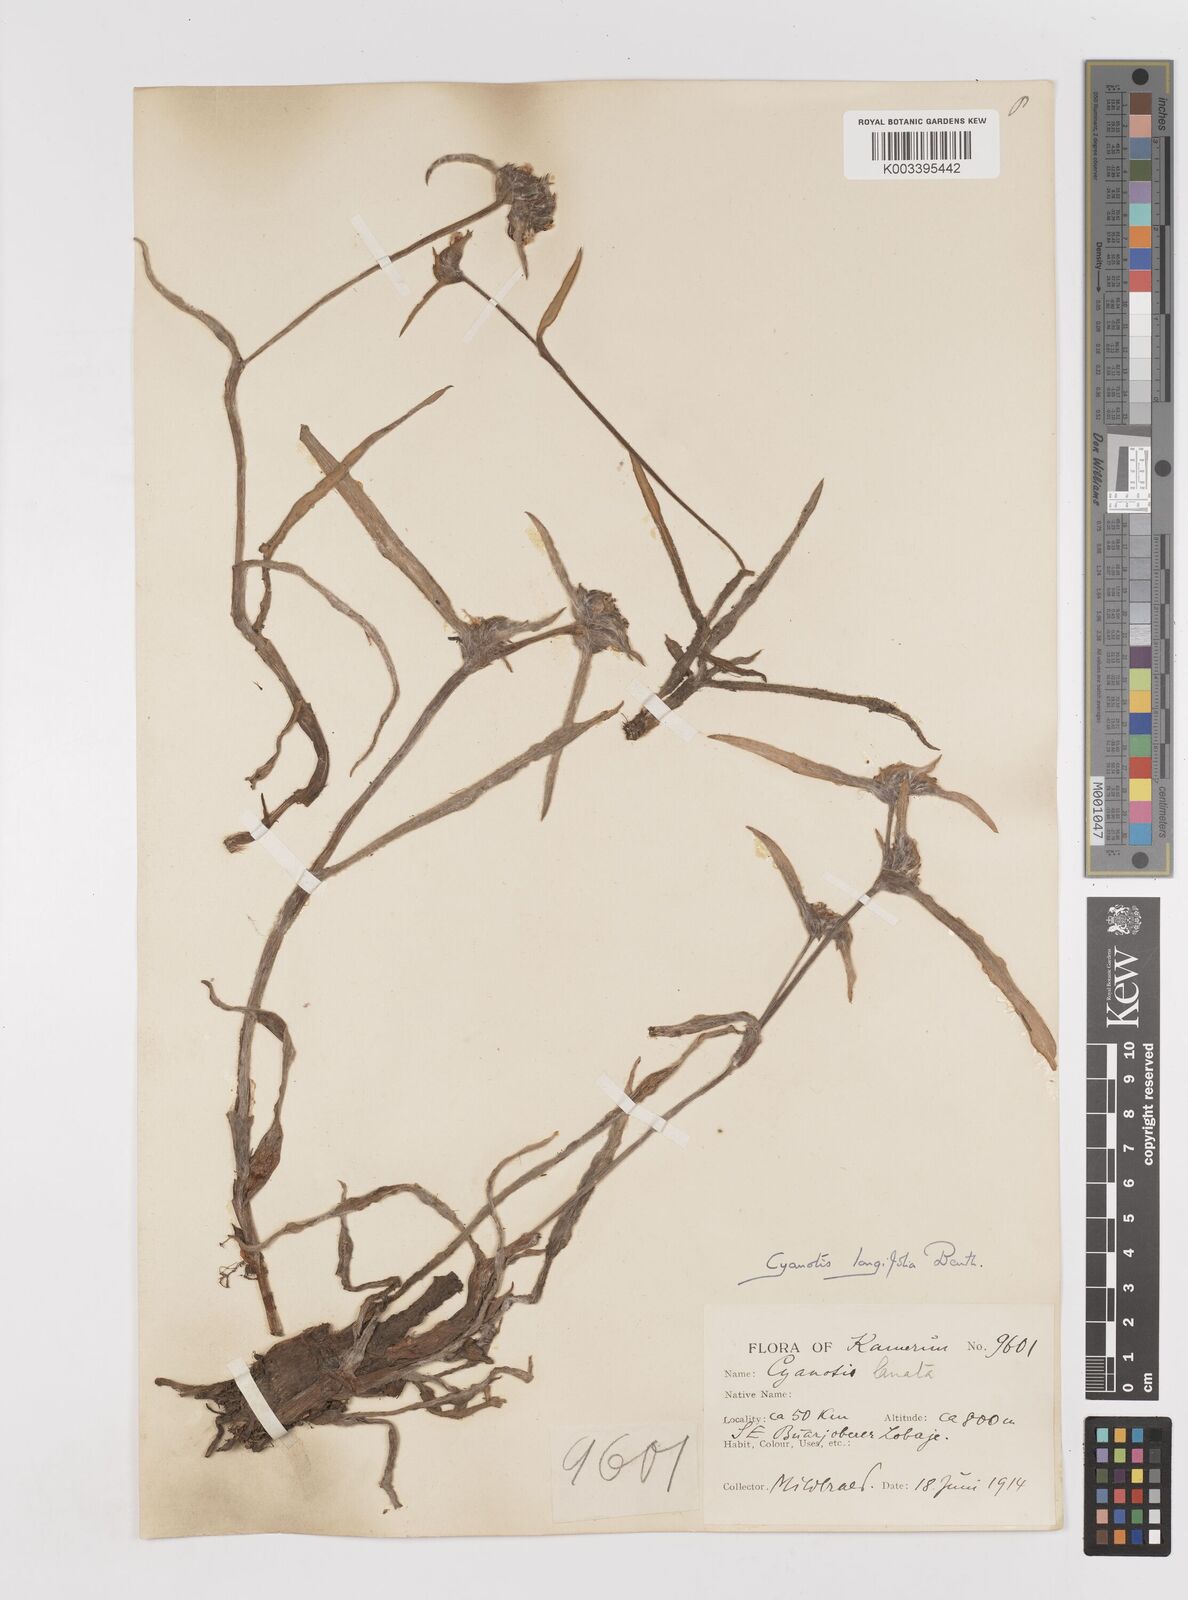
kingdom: Plantae
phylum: Tracheophyta
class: Liliopsida
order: Commelinales
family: Commelinaceae
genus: Cyanotis
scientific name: Cyanotis longifolia
